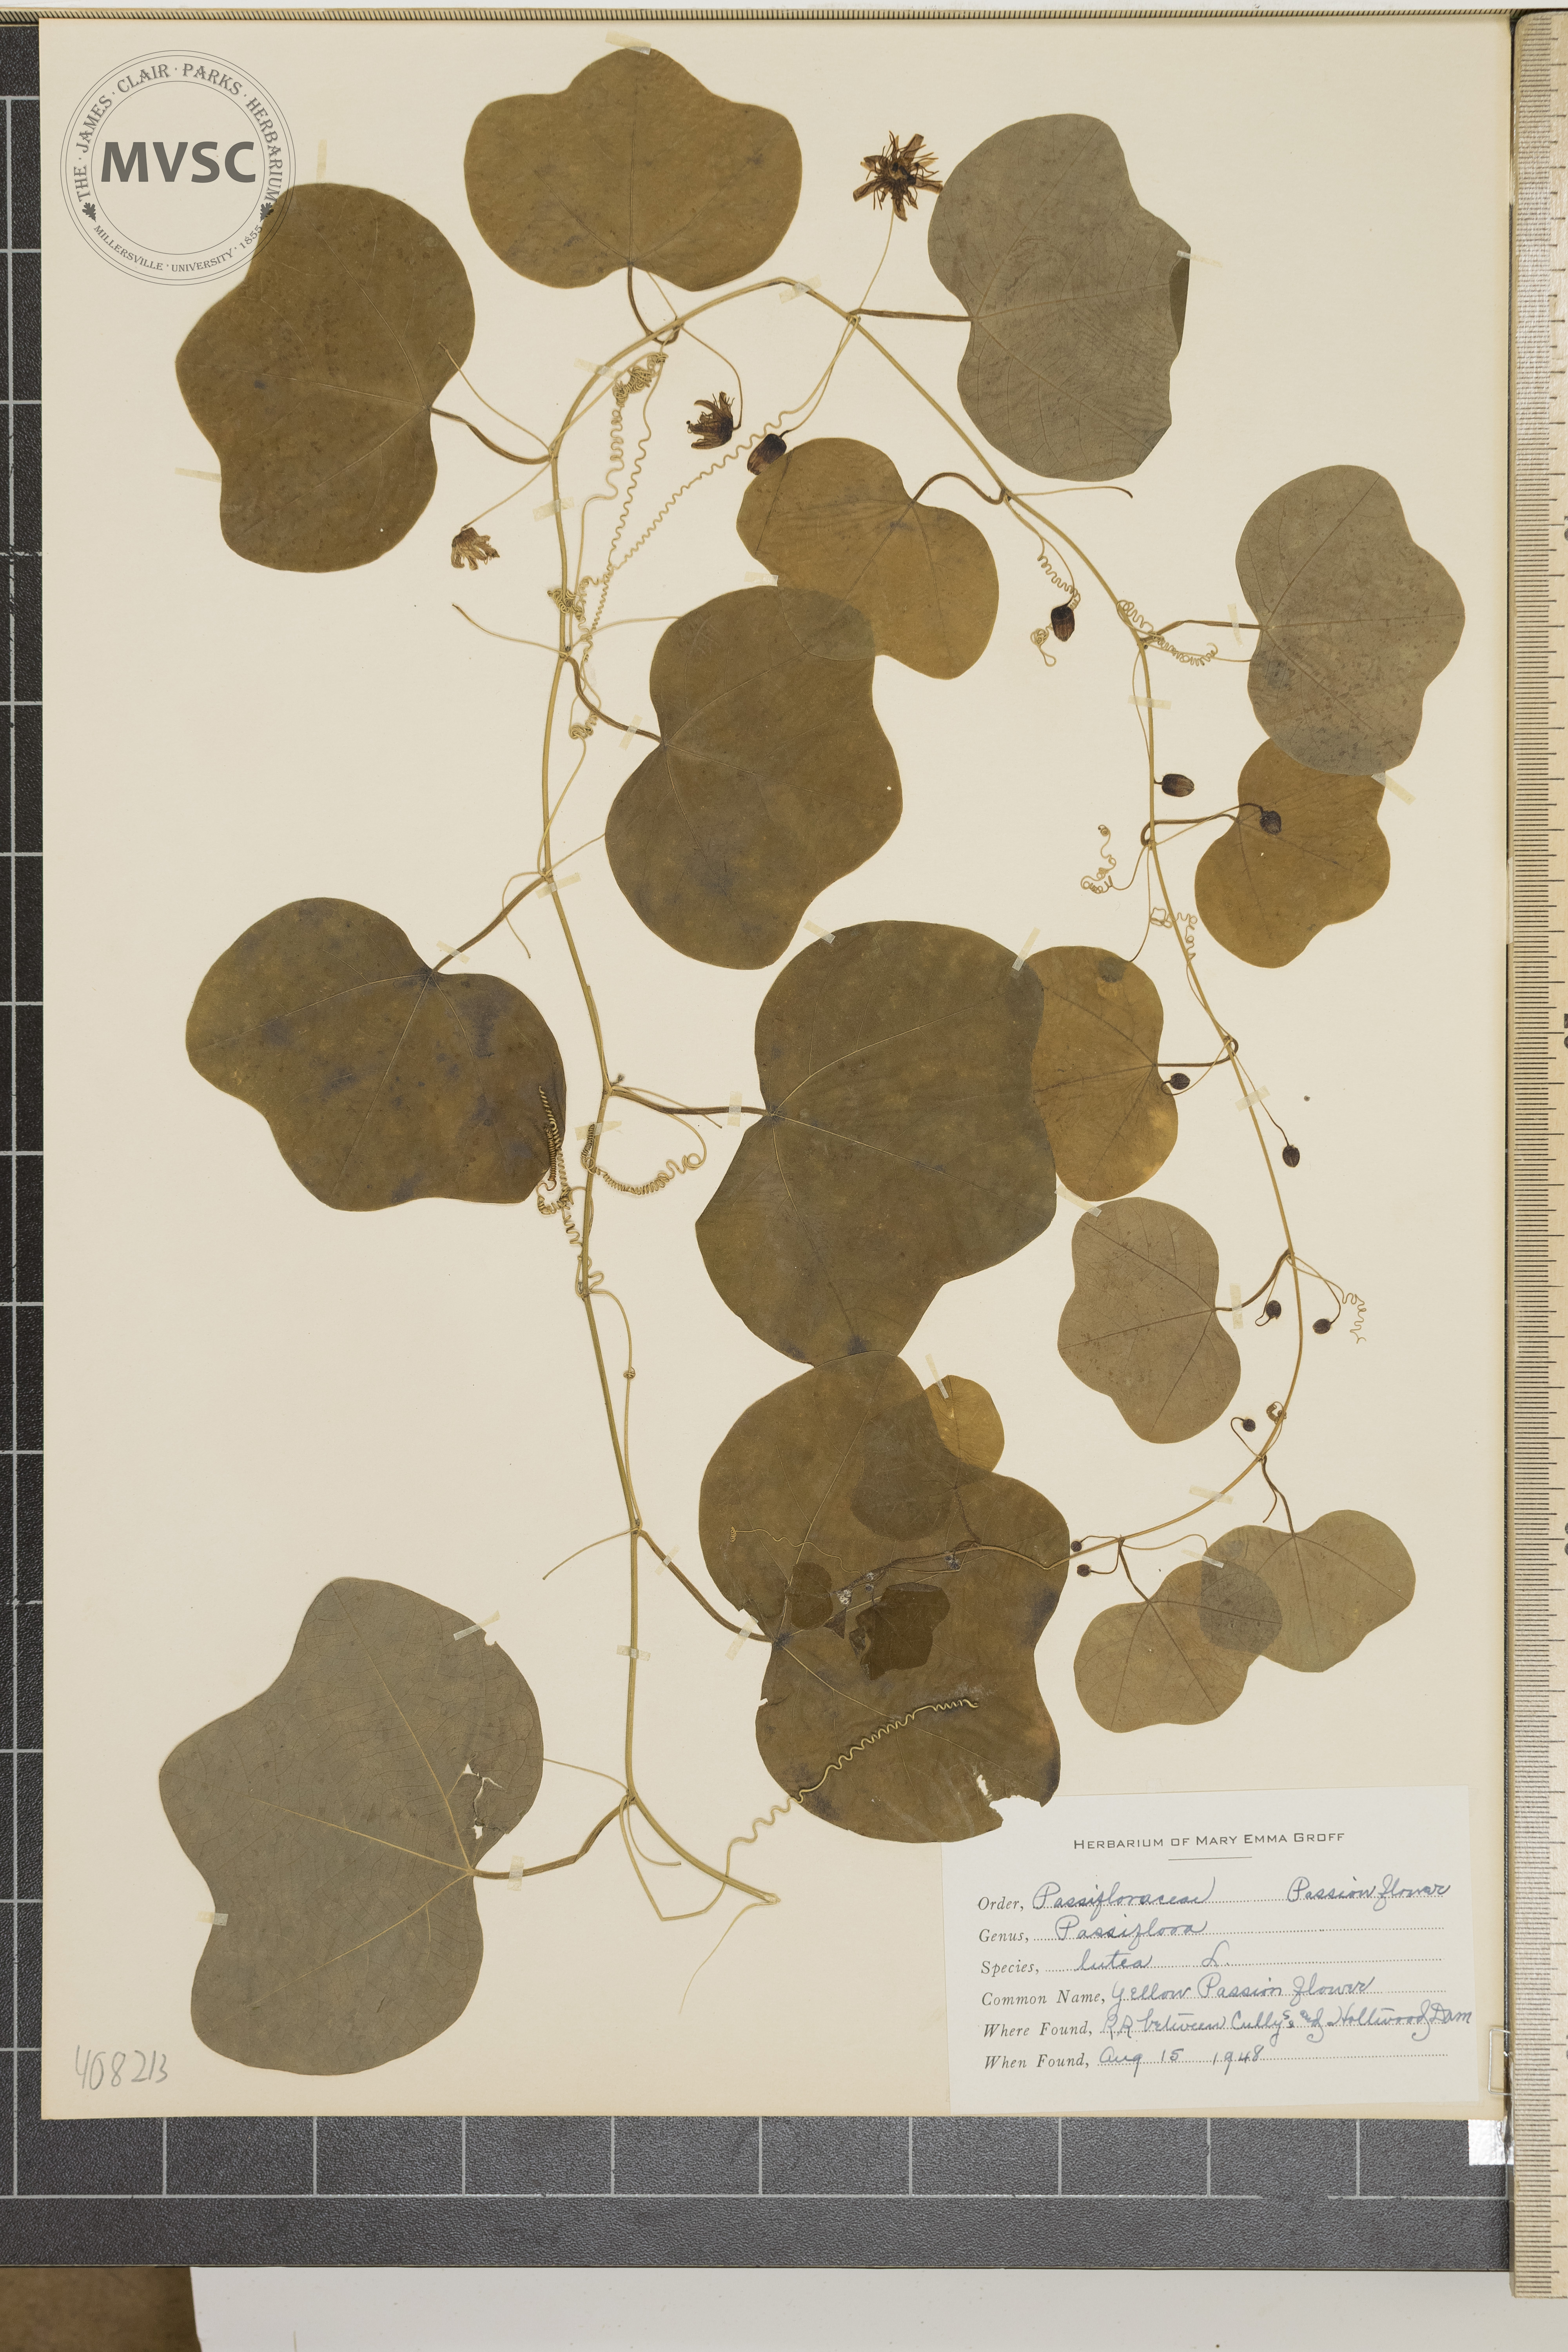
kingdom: Plantae
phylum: Tracheophyta
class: Magnoliopsida
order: Malpighiales
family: Passifloraceae
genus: Passiflora
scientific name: Passiflora lutea
